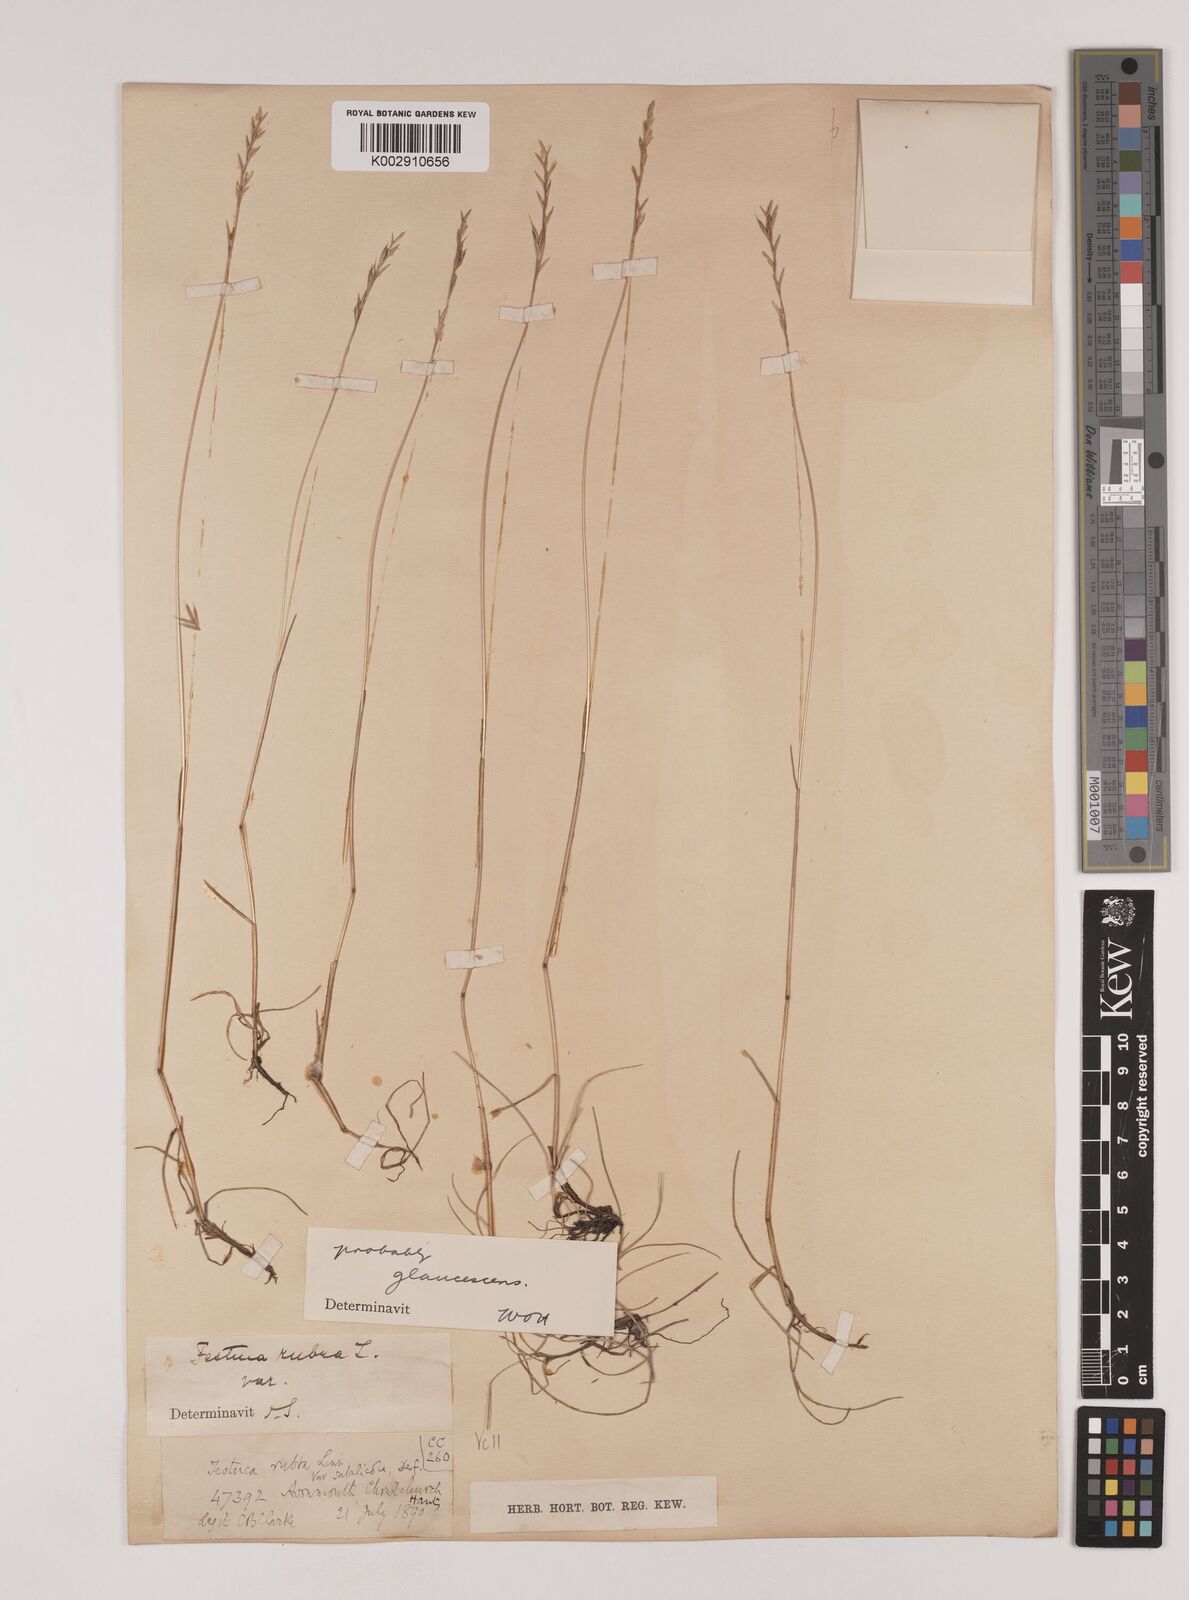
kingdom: Plantae
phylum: Tracheophyta
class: Liliopsida
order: Poales
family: Poaceae
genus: Festuca
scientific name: Festuca rubra
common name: Red fescue
